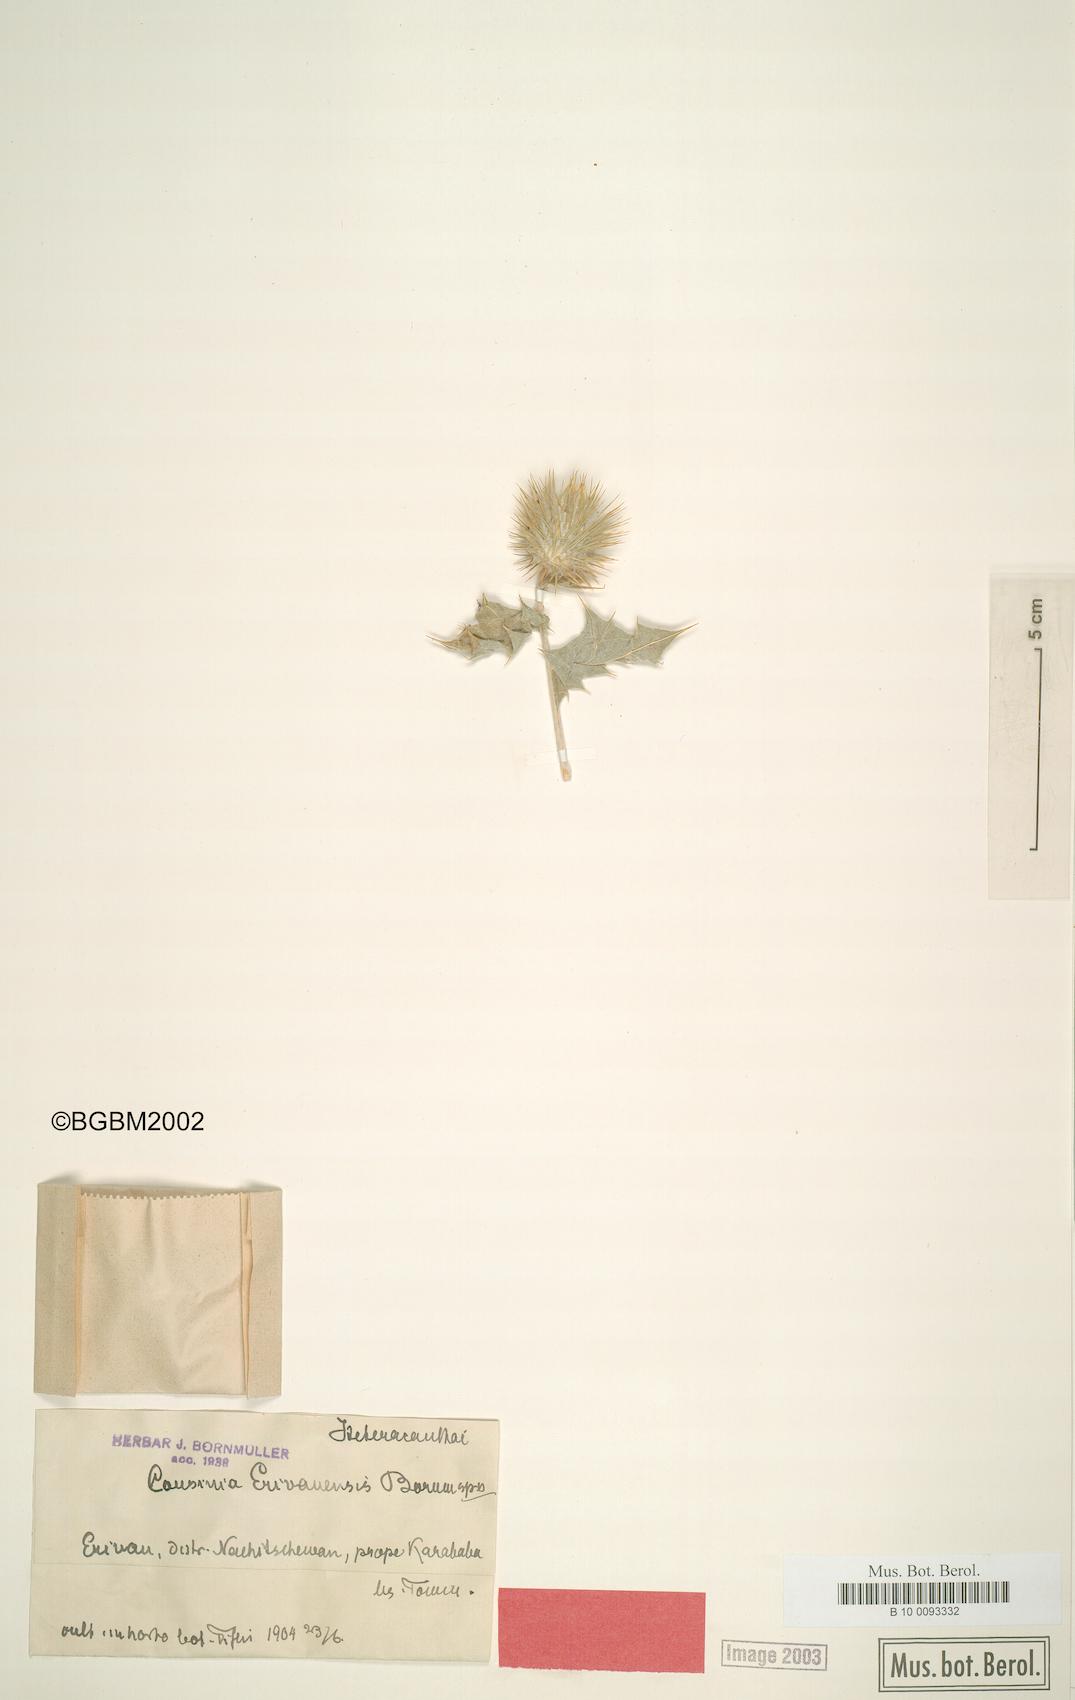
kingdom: Plantae
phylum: Tracheophyta
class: Magnoliopsida
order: Asterales
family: Asteraceae
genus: Cousinia
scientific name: Cousinia erivanensis
